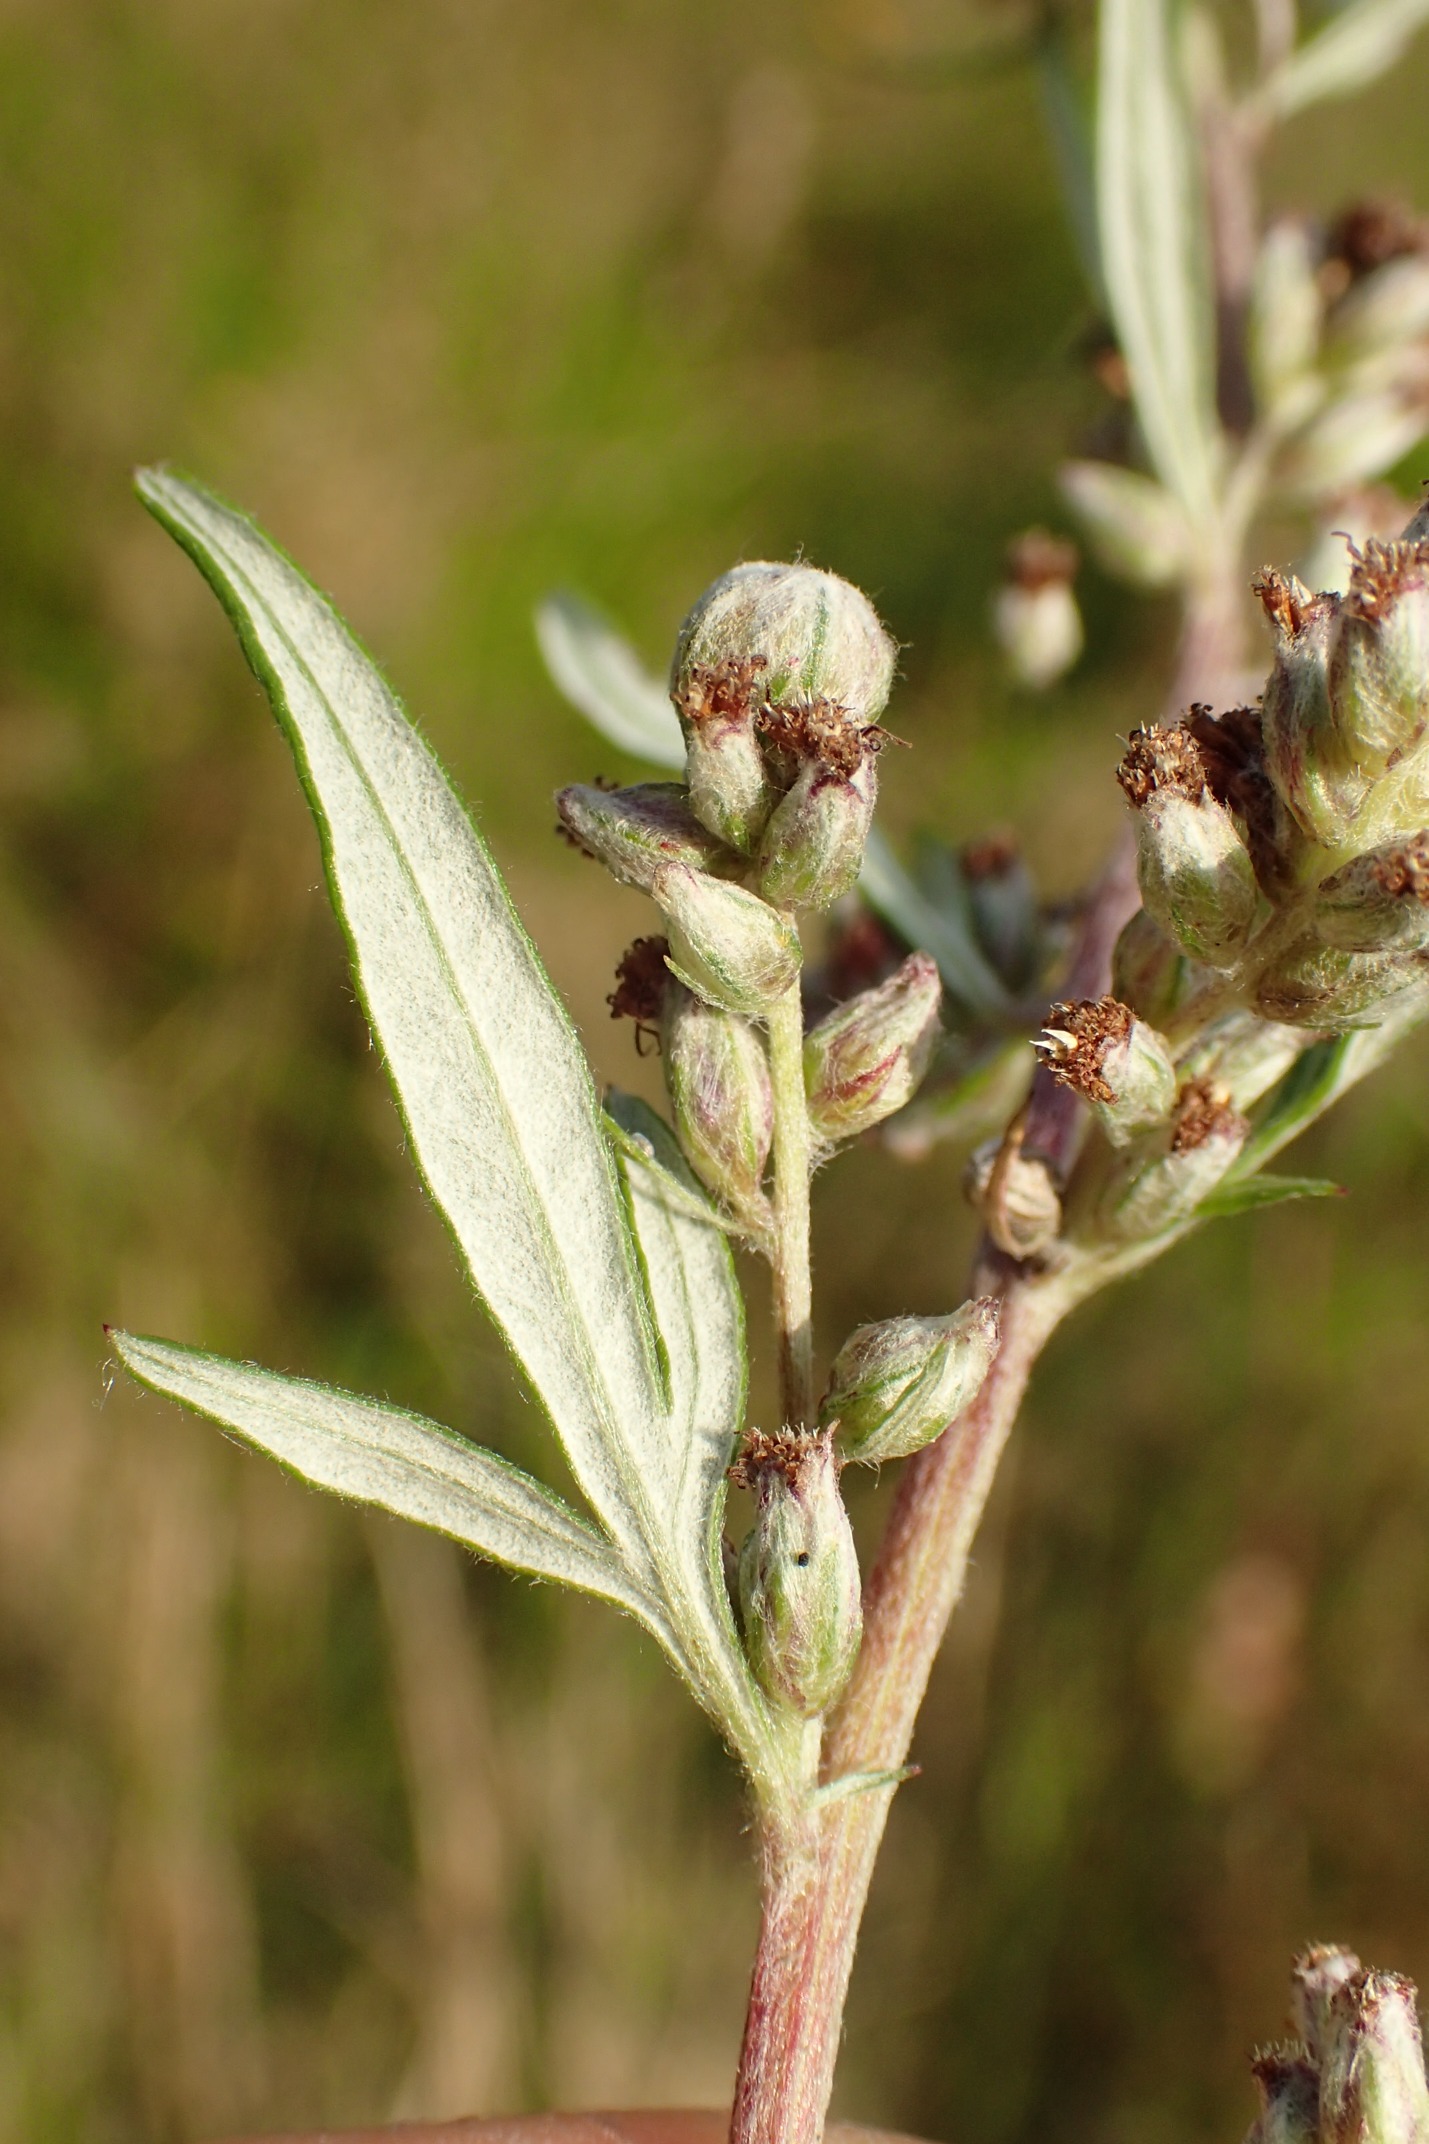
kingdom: Animalia
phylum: Arthropoda
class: Insecta
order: Diptera
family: Cecidomyiidae
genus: Ametrodiplosis
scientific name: Ametrodiplosis rudimentalis
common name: Bynkekurvgalmyg
